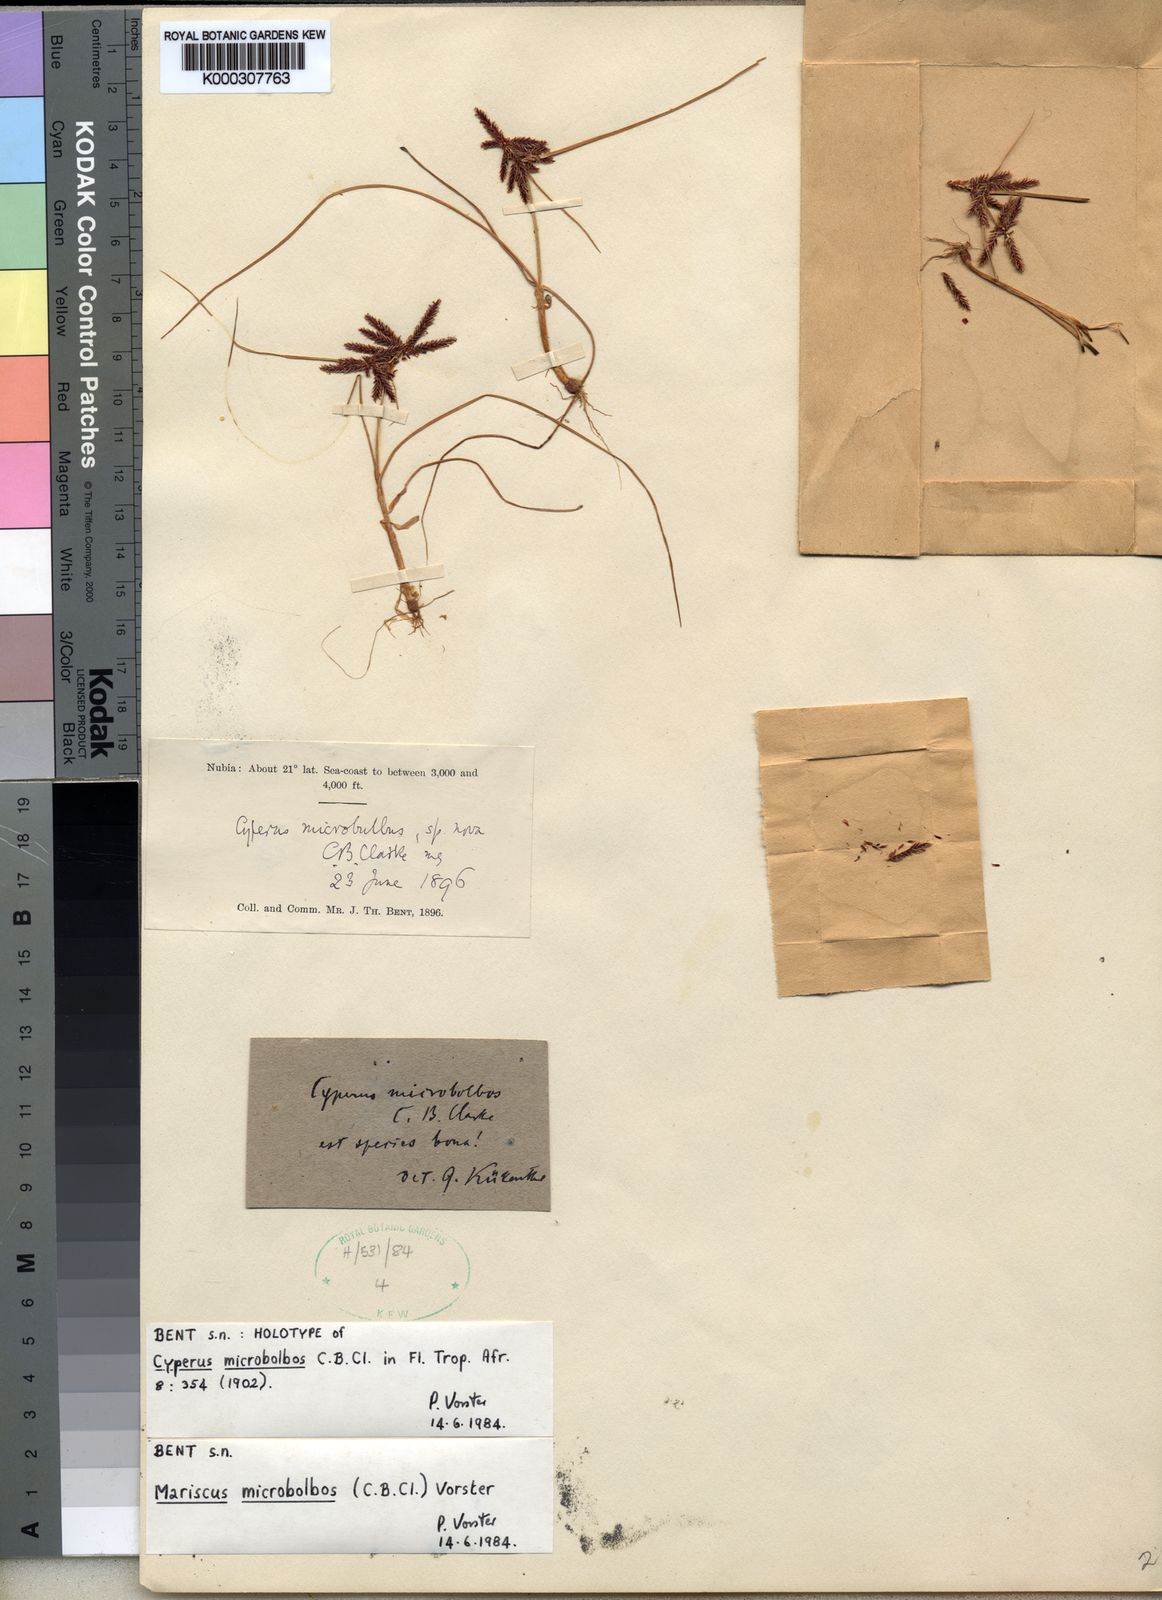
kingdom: Plantae
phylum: Tracheophyta
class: Liliopsida
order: Poales
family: Cyperaceae
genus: Cyperus
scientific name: Cyperus
